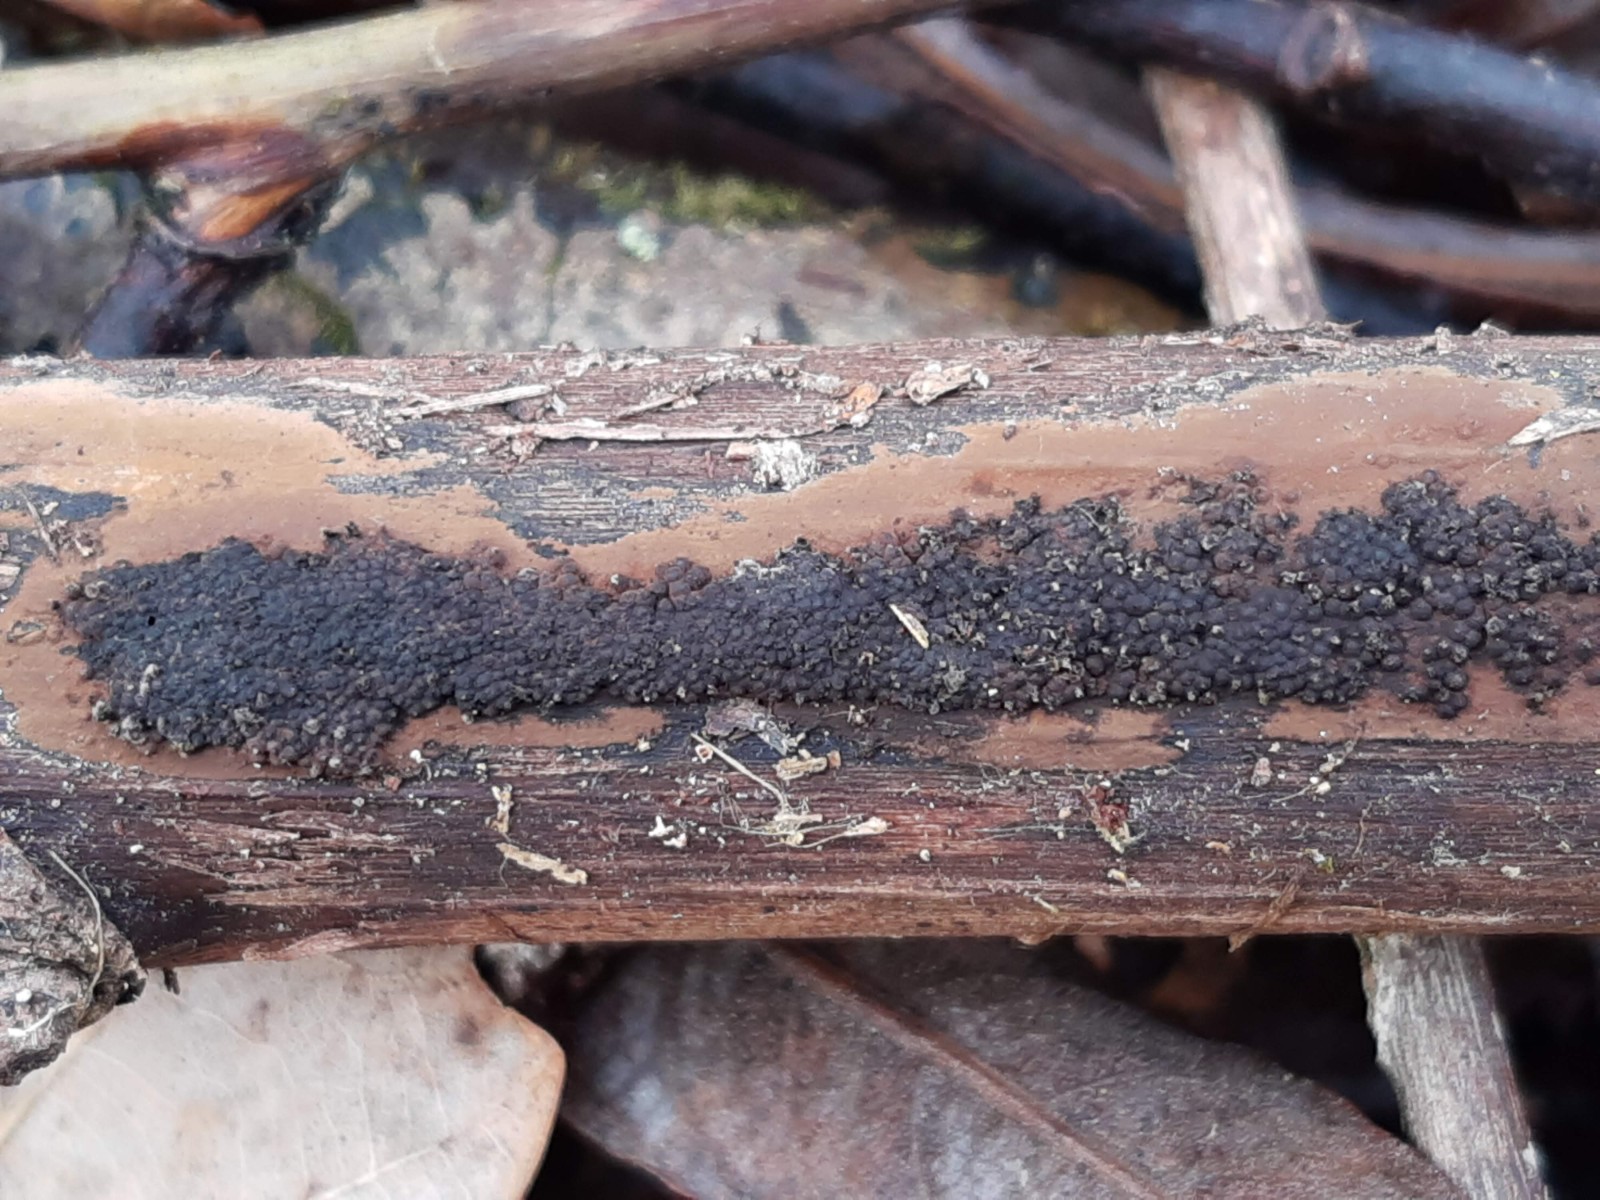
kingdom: Fungi
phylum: Ascomycota
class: Sordariomycetes
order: Xylariales
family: Hypoxylaceae
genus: Hypoxylon
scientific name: Hypoxylon rubiginosum
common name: rustfarvet kulbær
